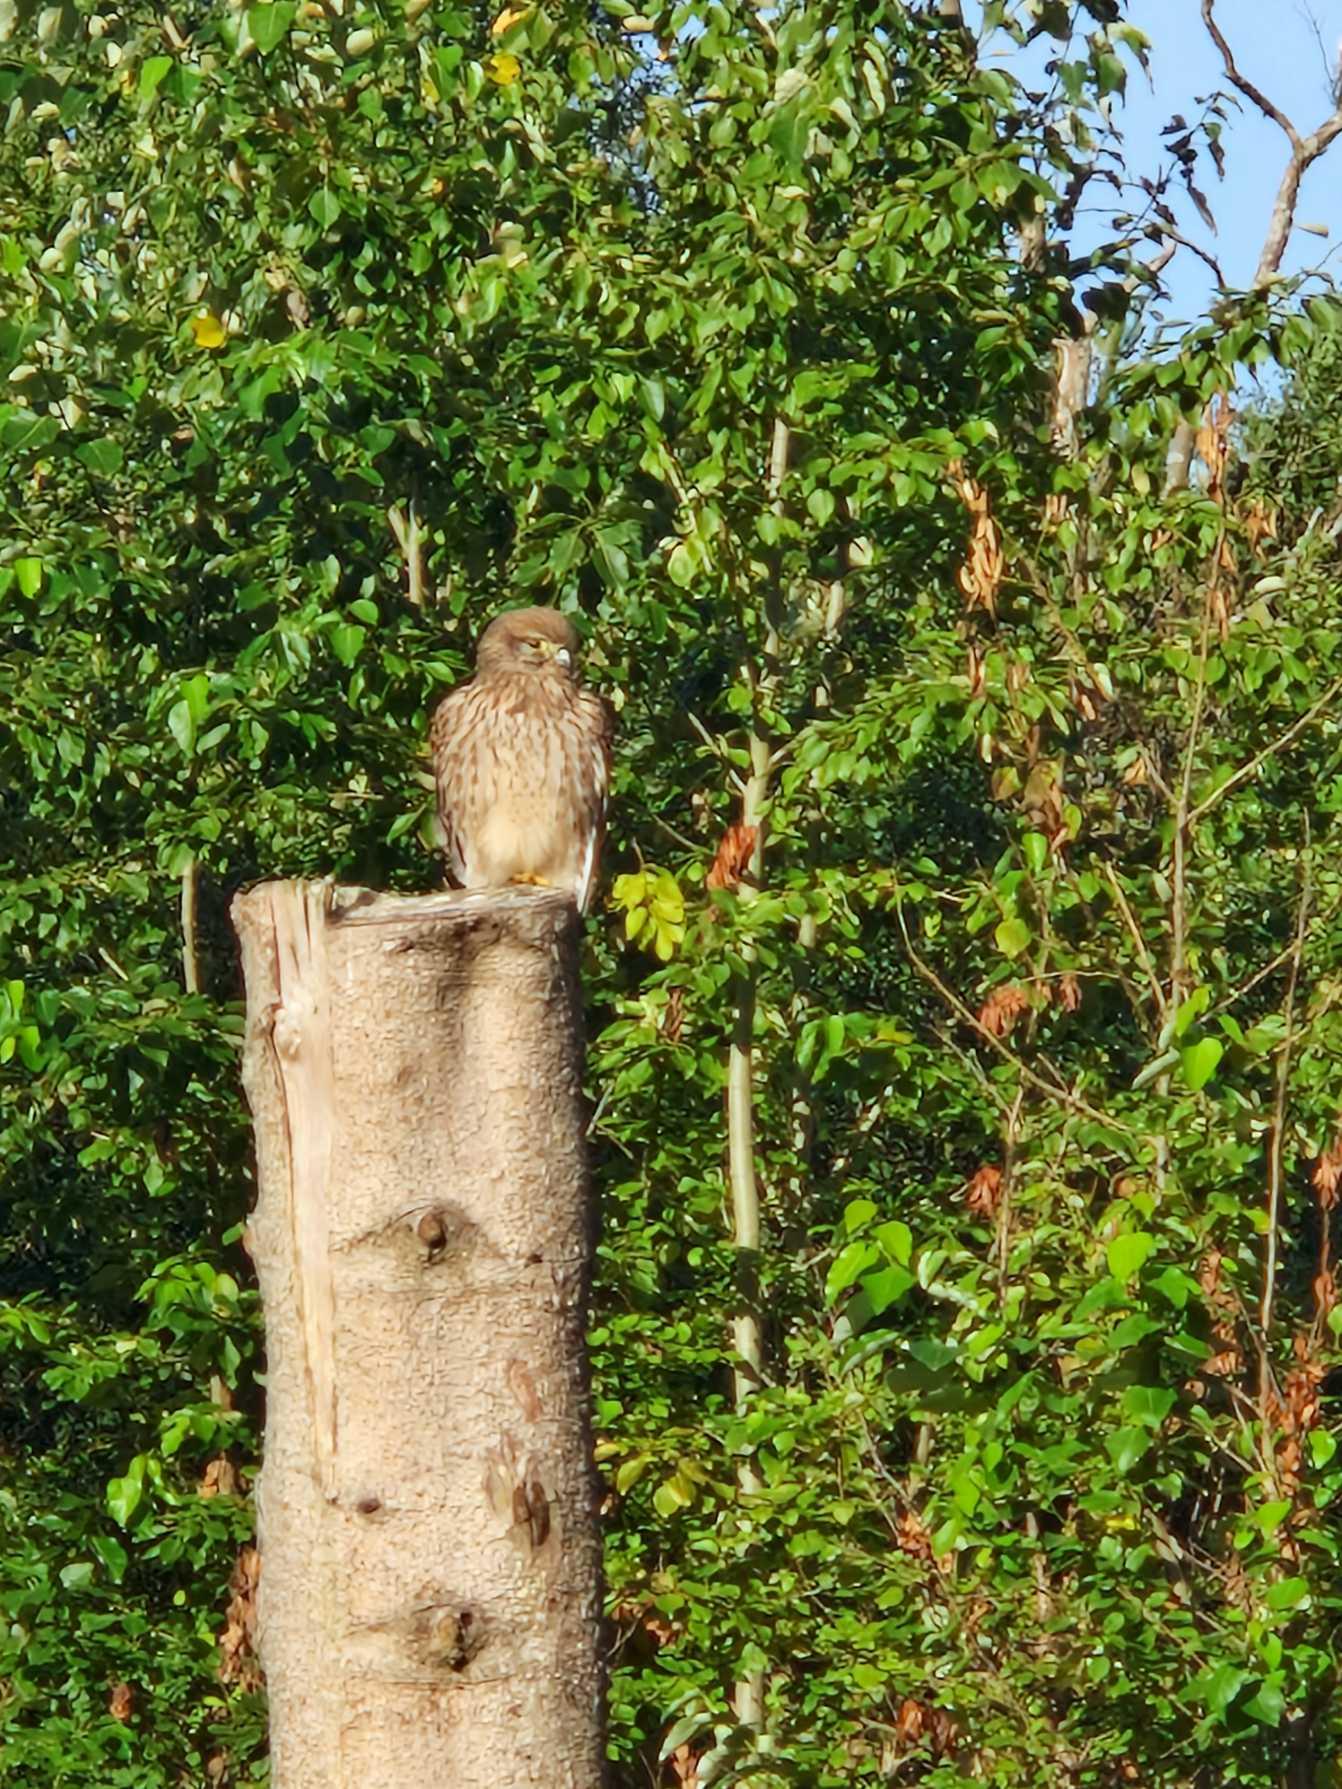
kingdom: Animalia
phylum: Chordata
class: Aves
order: Falconiformes
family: Falconidae
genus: Falco
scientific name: Falco tinnunculus
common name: Tårnfalk
